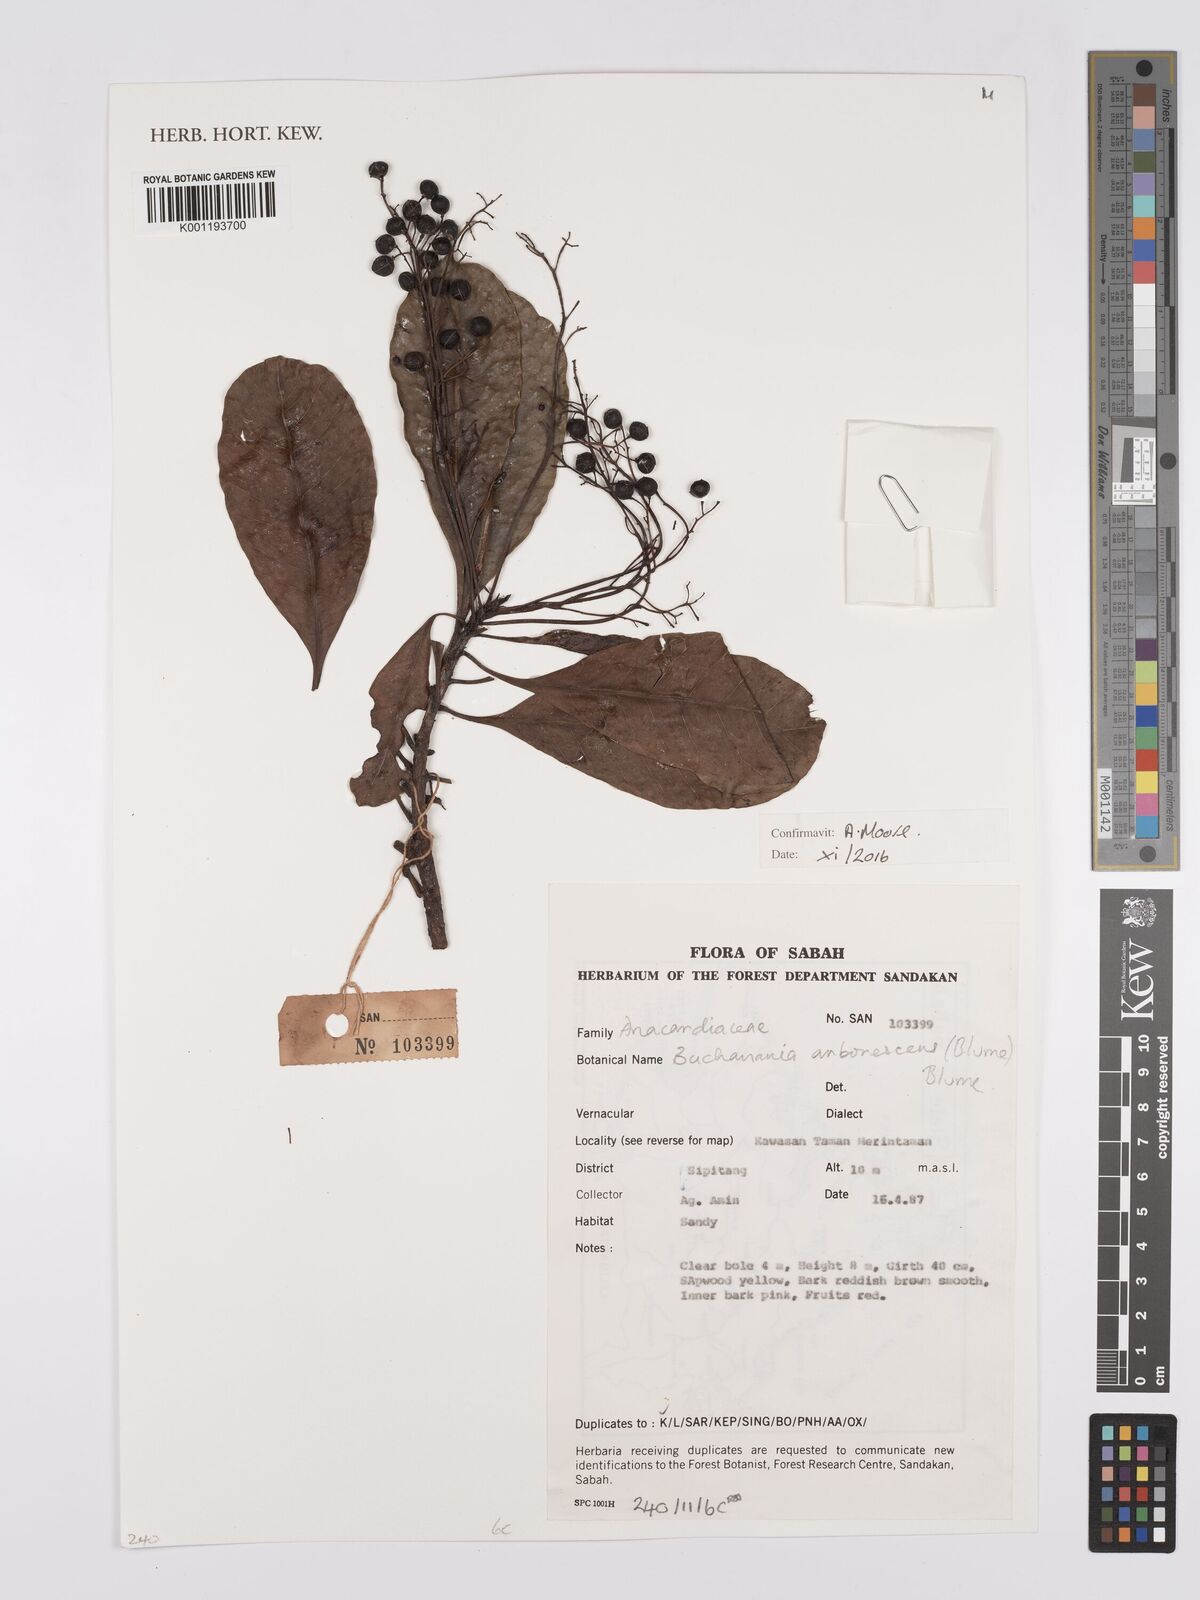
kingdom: Plantae
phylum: Tracheophyta
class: Magnoliopsida
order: Sapindales
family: Anacardiaceae
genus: Buchanania
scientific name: Buchanania arborescens
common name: Sparrow’s mango
